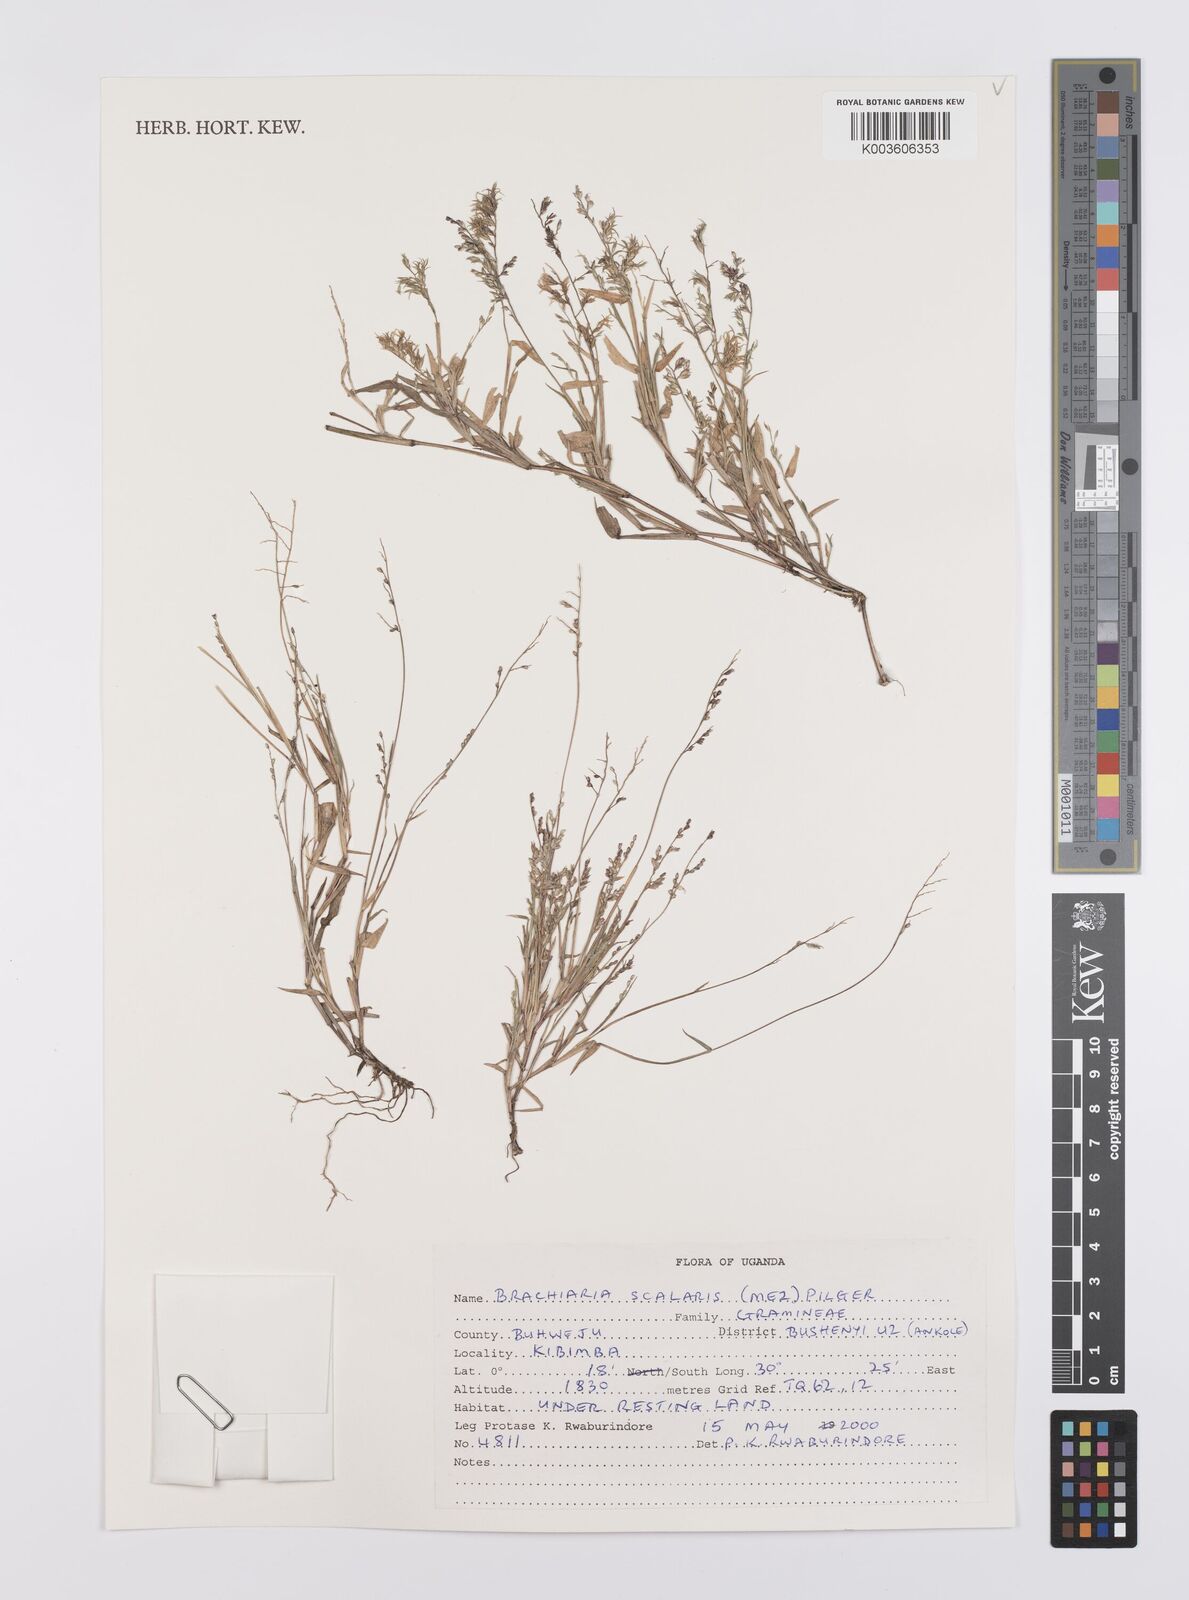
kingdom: Plantae
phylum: Tracheophyta
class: Liliopsida
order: Poales
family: Poaceae
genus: Urochloa
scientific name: Urochloa comata
